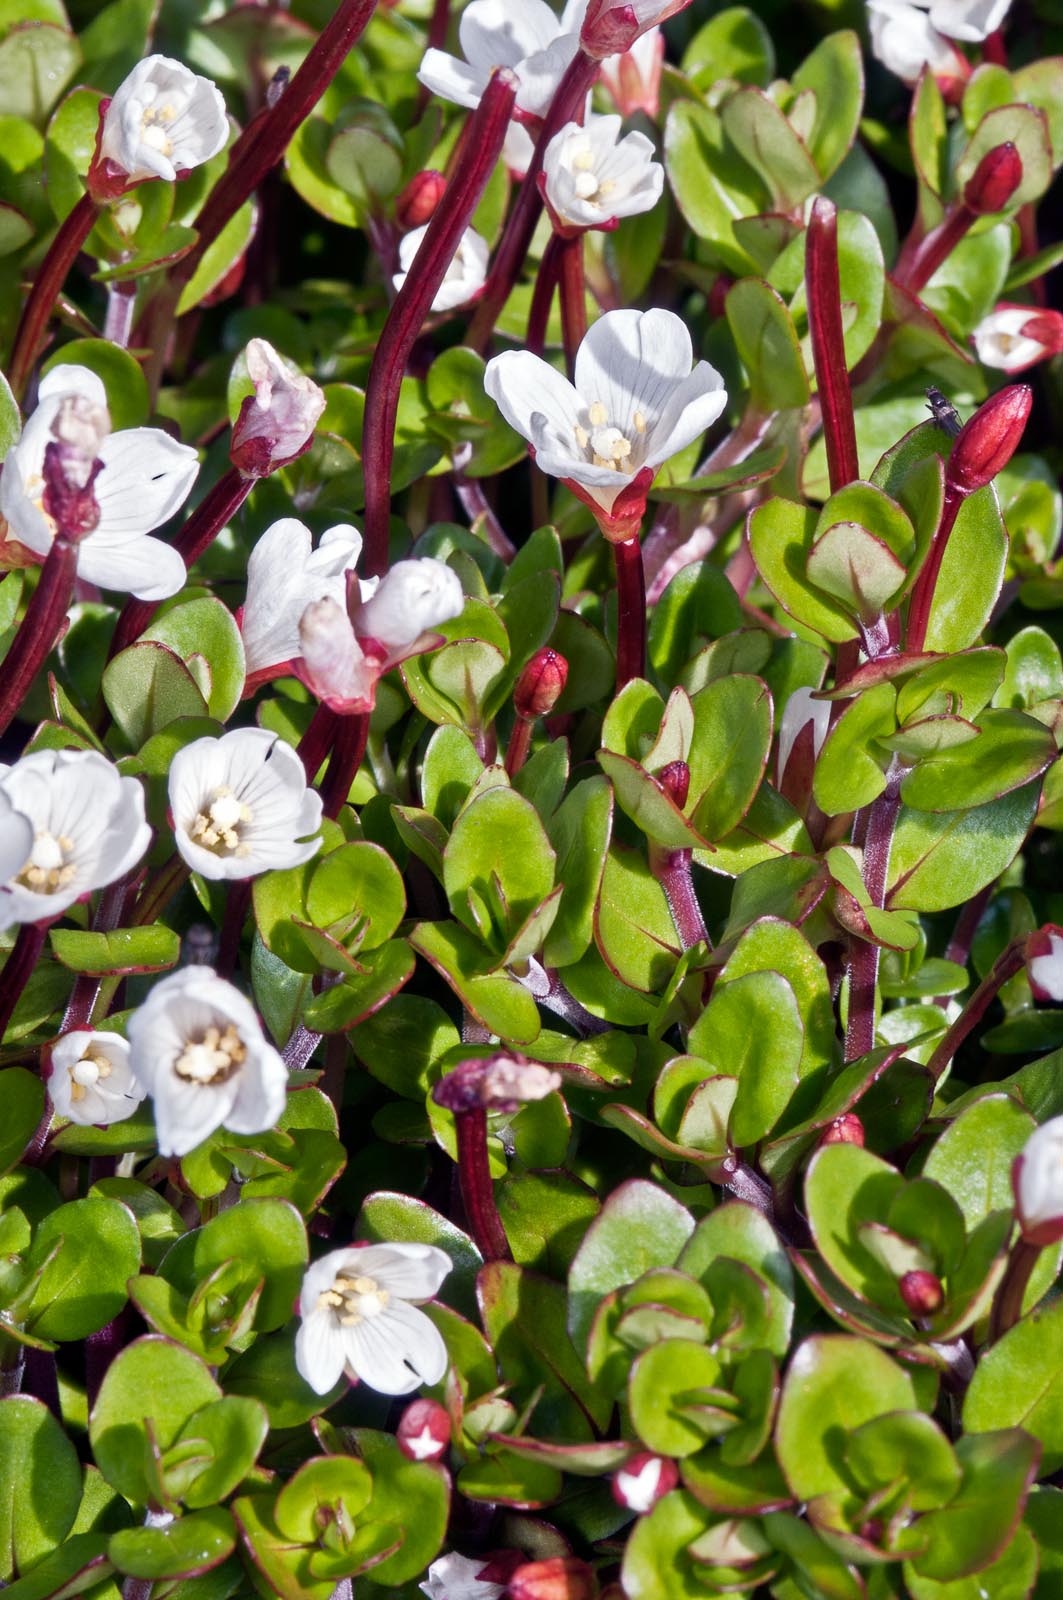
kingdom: Plantae
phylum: Tracheophyta
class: Magnoliopsida
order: Myrtales
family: Onagraceae
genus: Epilobium
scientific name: Epilobium macropus
